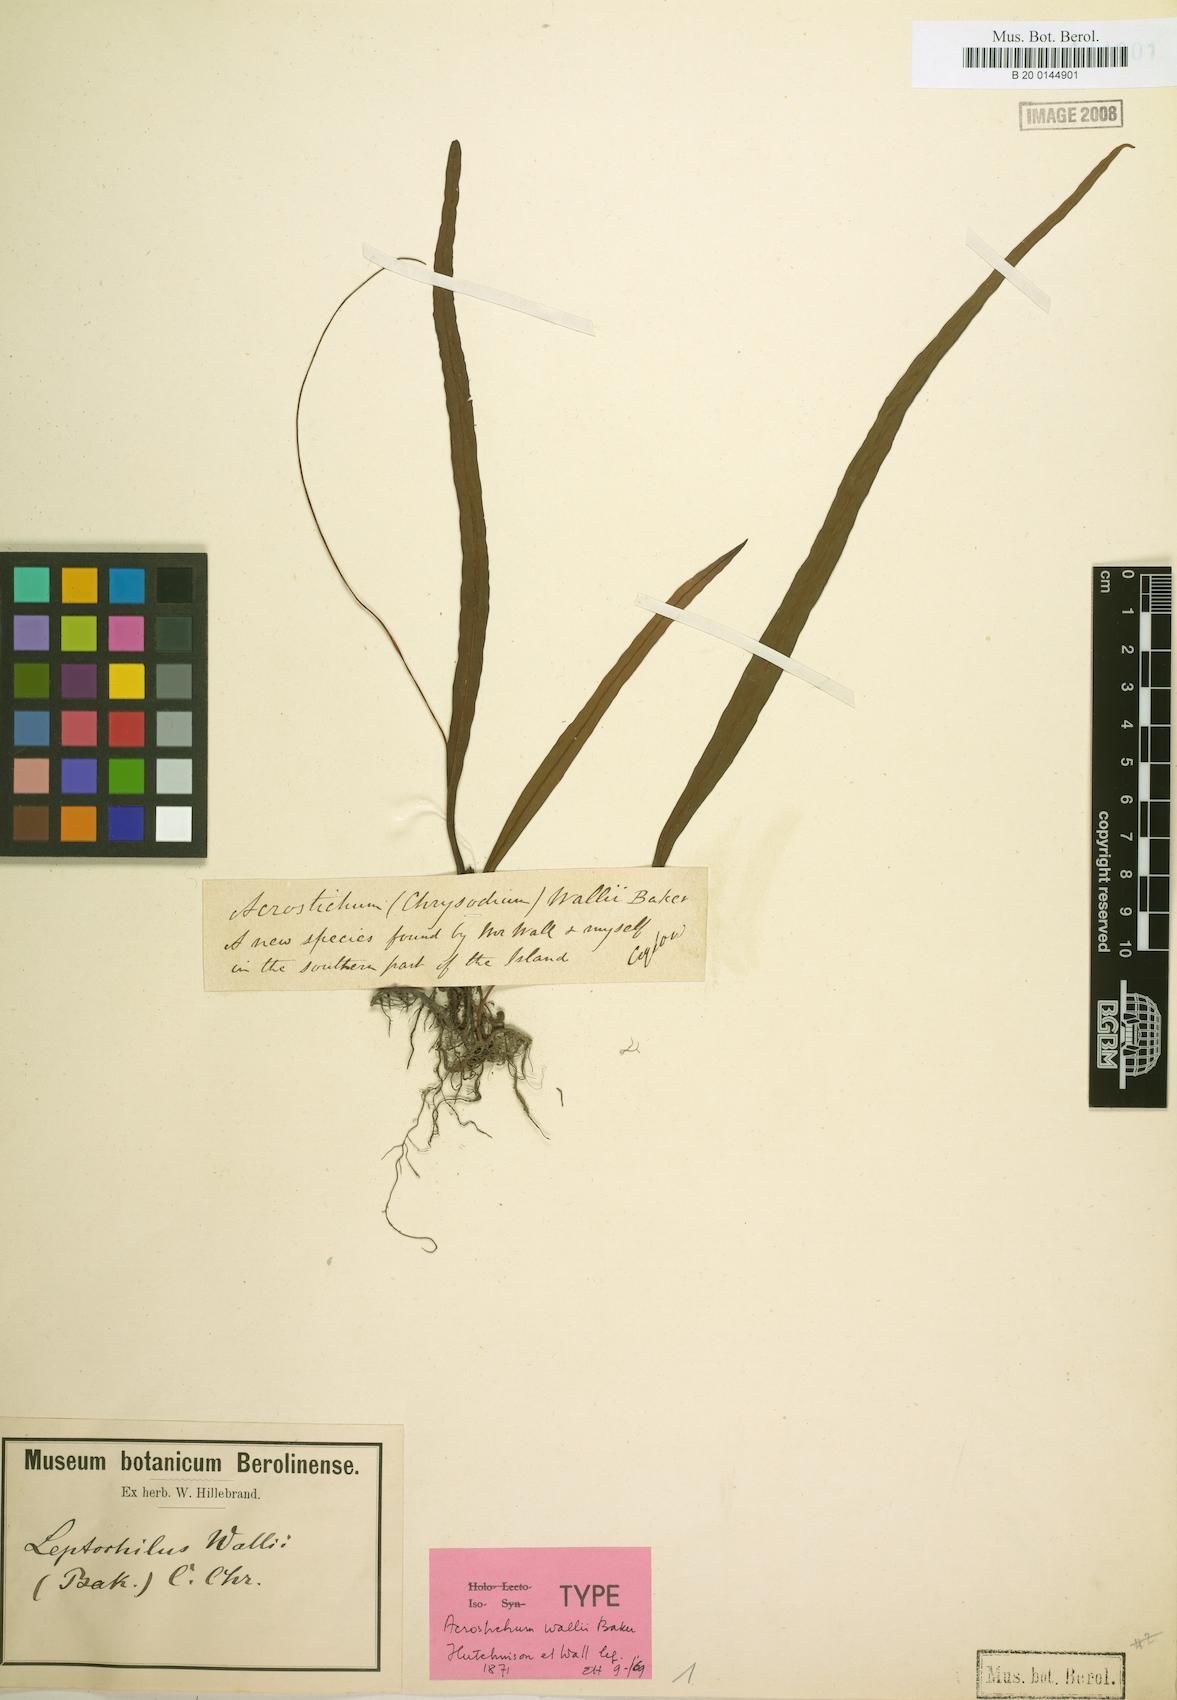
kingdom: Plantae
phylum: Tracheophyta
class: Polypodiopsida
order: Polypodiales
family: Polypodiaceae
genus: Leptochilus
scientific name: Leptochilus decurrens
